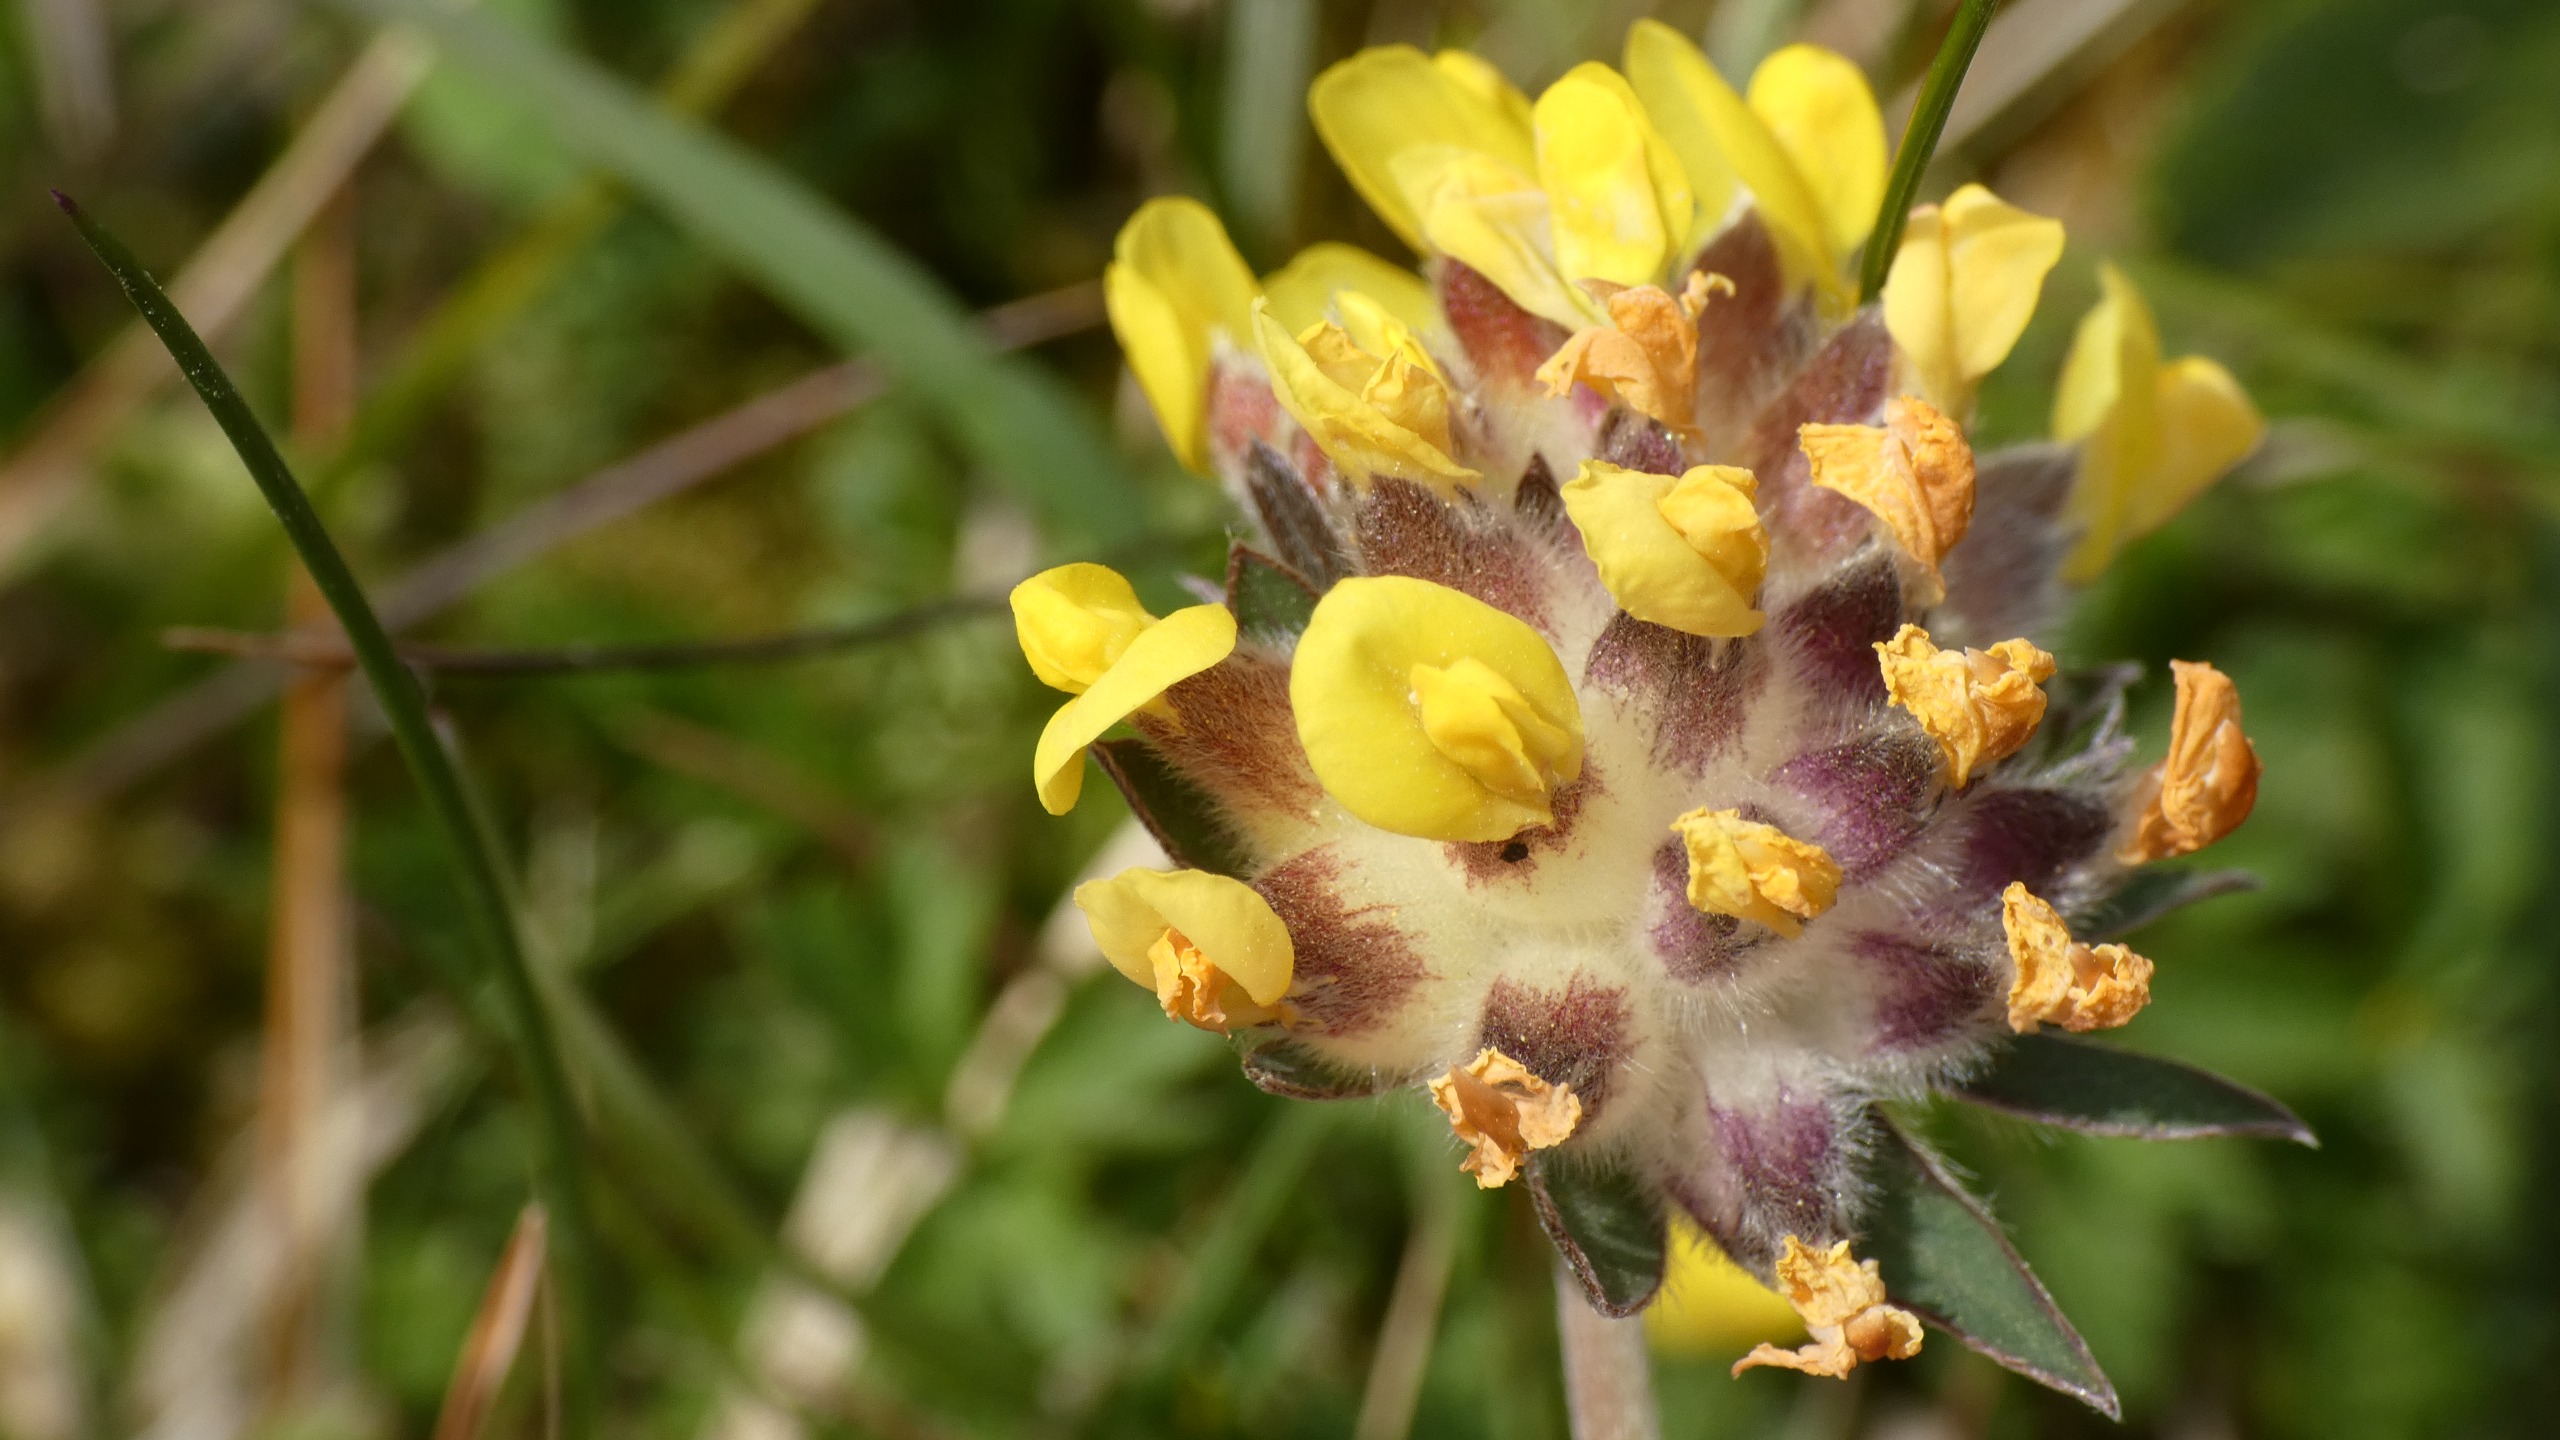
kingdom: Plantae
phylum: Tracheophyta
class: Magnoliopsida
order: Fabales
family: Fabaceae
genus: Anthyllis
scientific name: Anthyllis vulneraria
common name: Rundbælg
